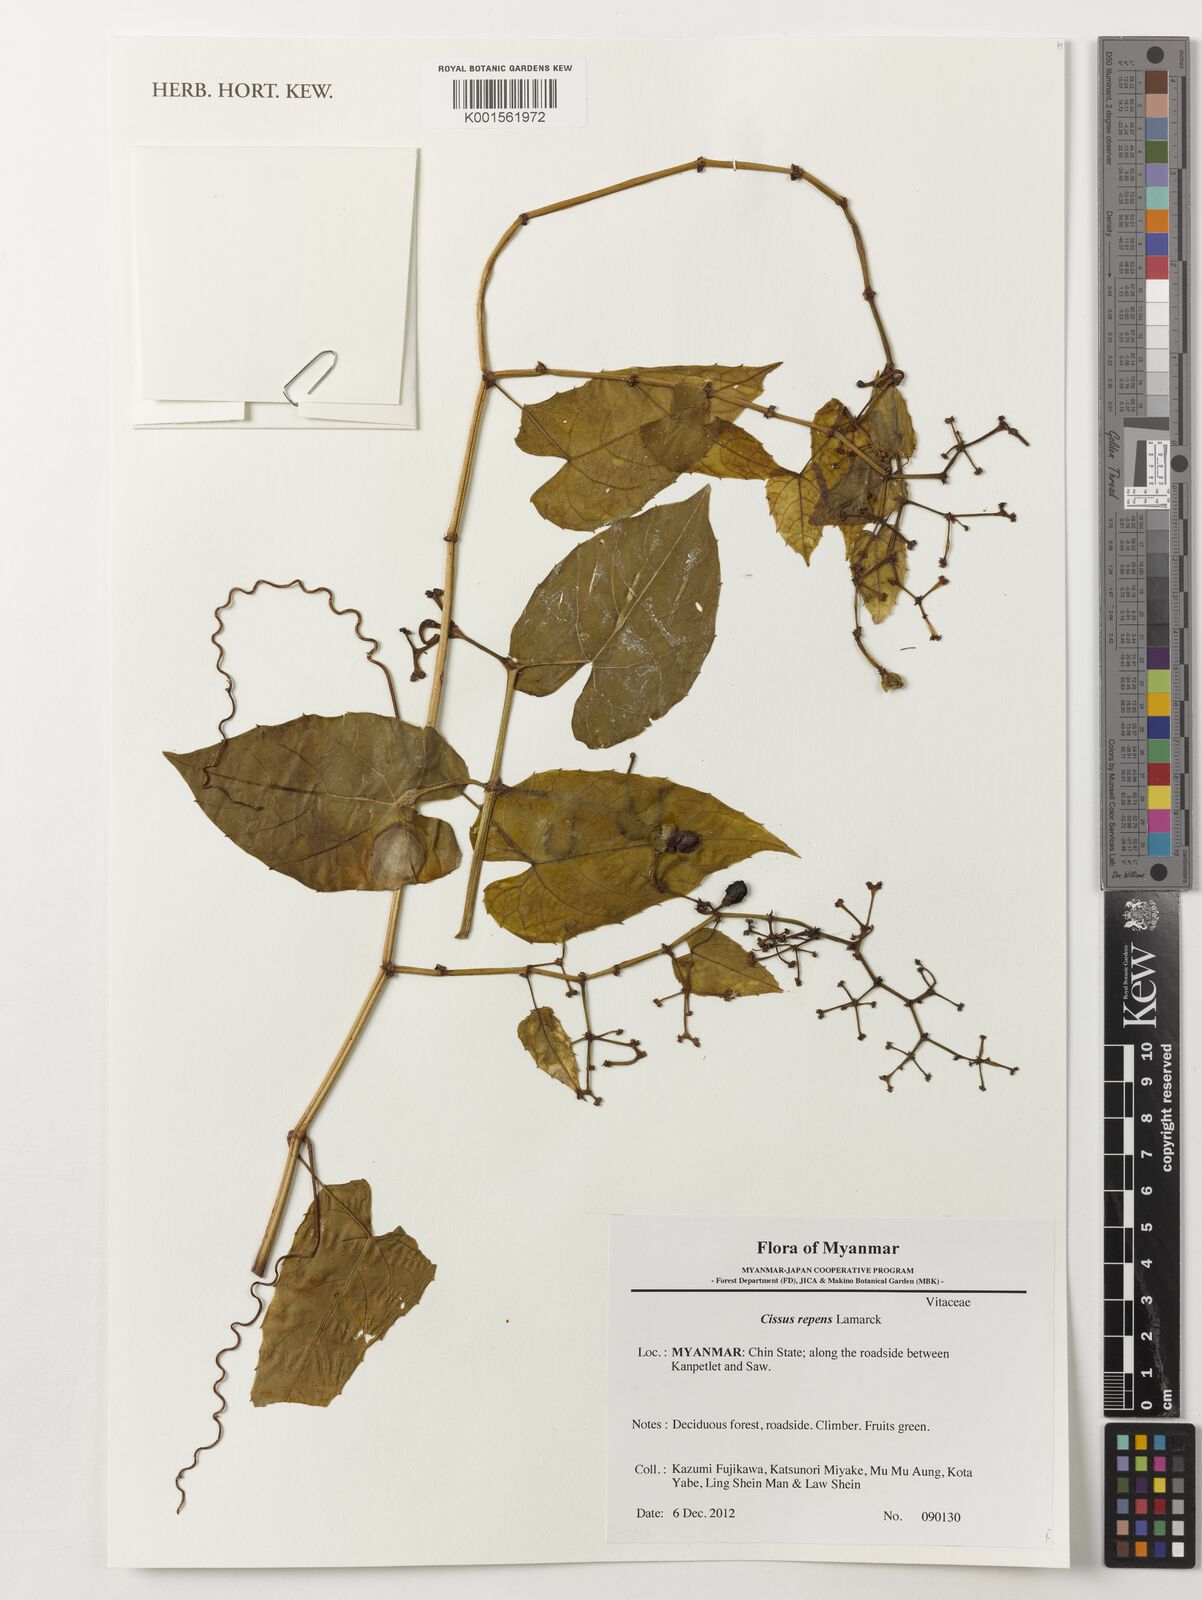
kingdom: Plantae
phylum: Tracheophyta
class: Magnoliopsida
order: Vitales
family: Vitaceae
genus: Cissus
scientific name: Cissus repens
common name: Cissus
